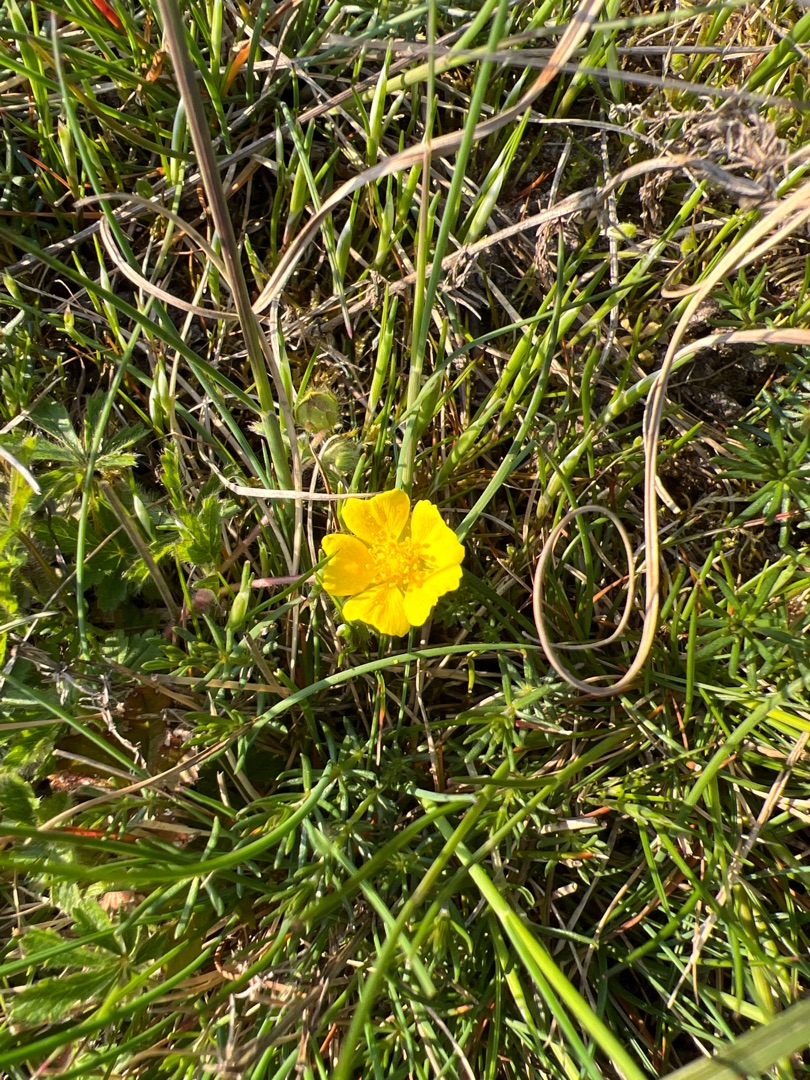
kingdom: Plantae
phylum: Tracheophyta
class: Magnoliopsida
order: Rosales
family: Rosaceae
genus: Potentilla
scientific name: Potentilla heptaphylla
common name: Mat potentil
